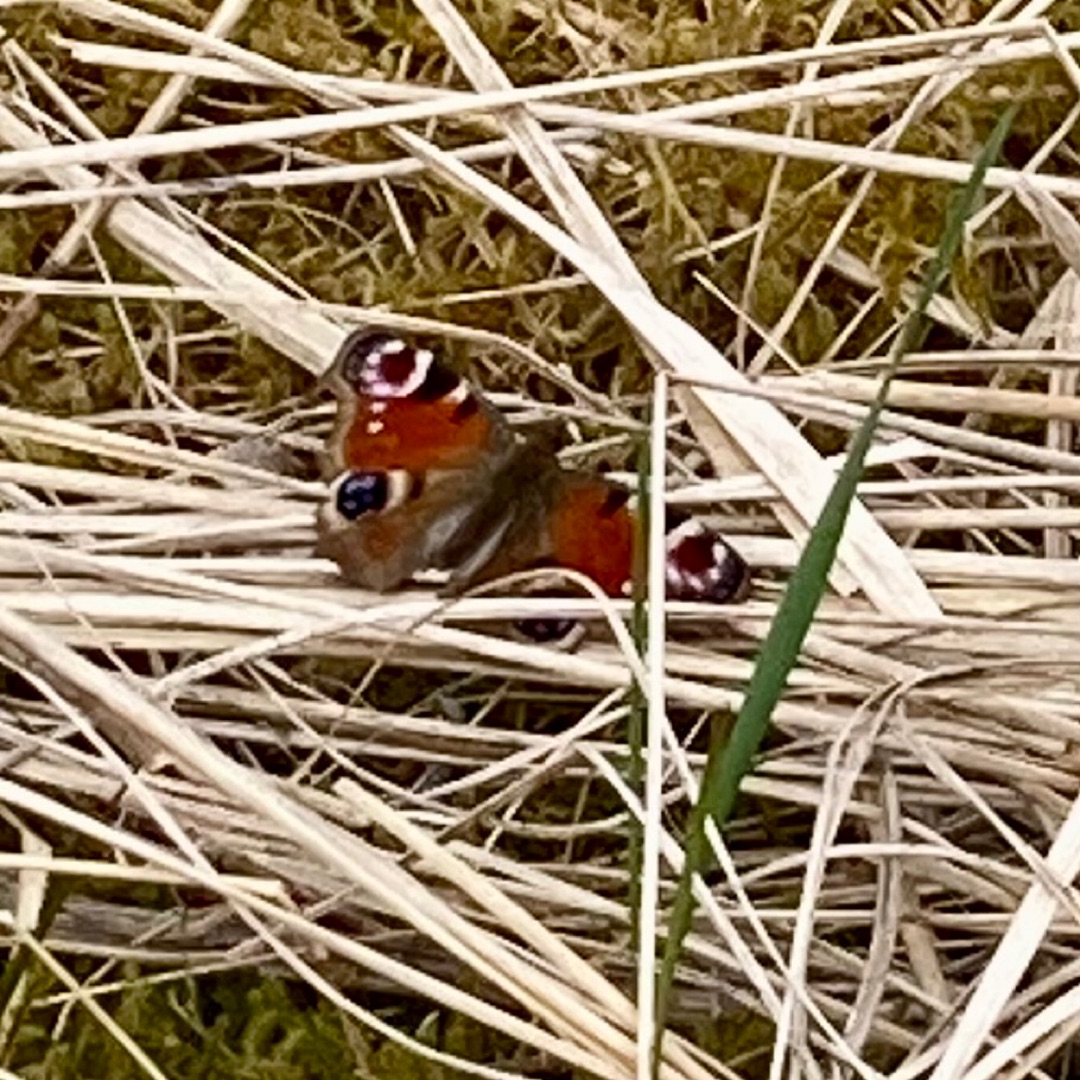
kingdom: Animalia
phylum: Arthropoda
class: Insecta
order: Lepidoptera
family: Nymphalidae
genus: Aglais
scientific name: Aglais io
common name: Dagpåfugleøje
